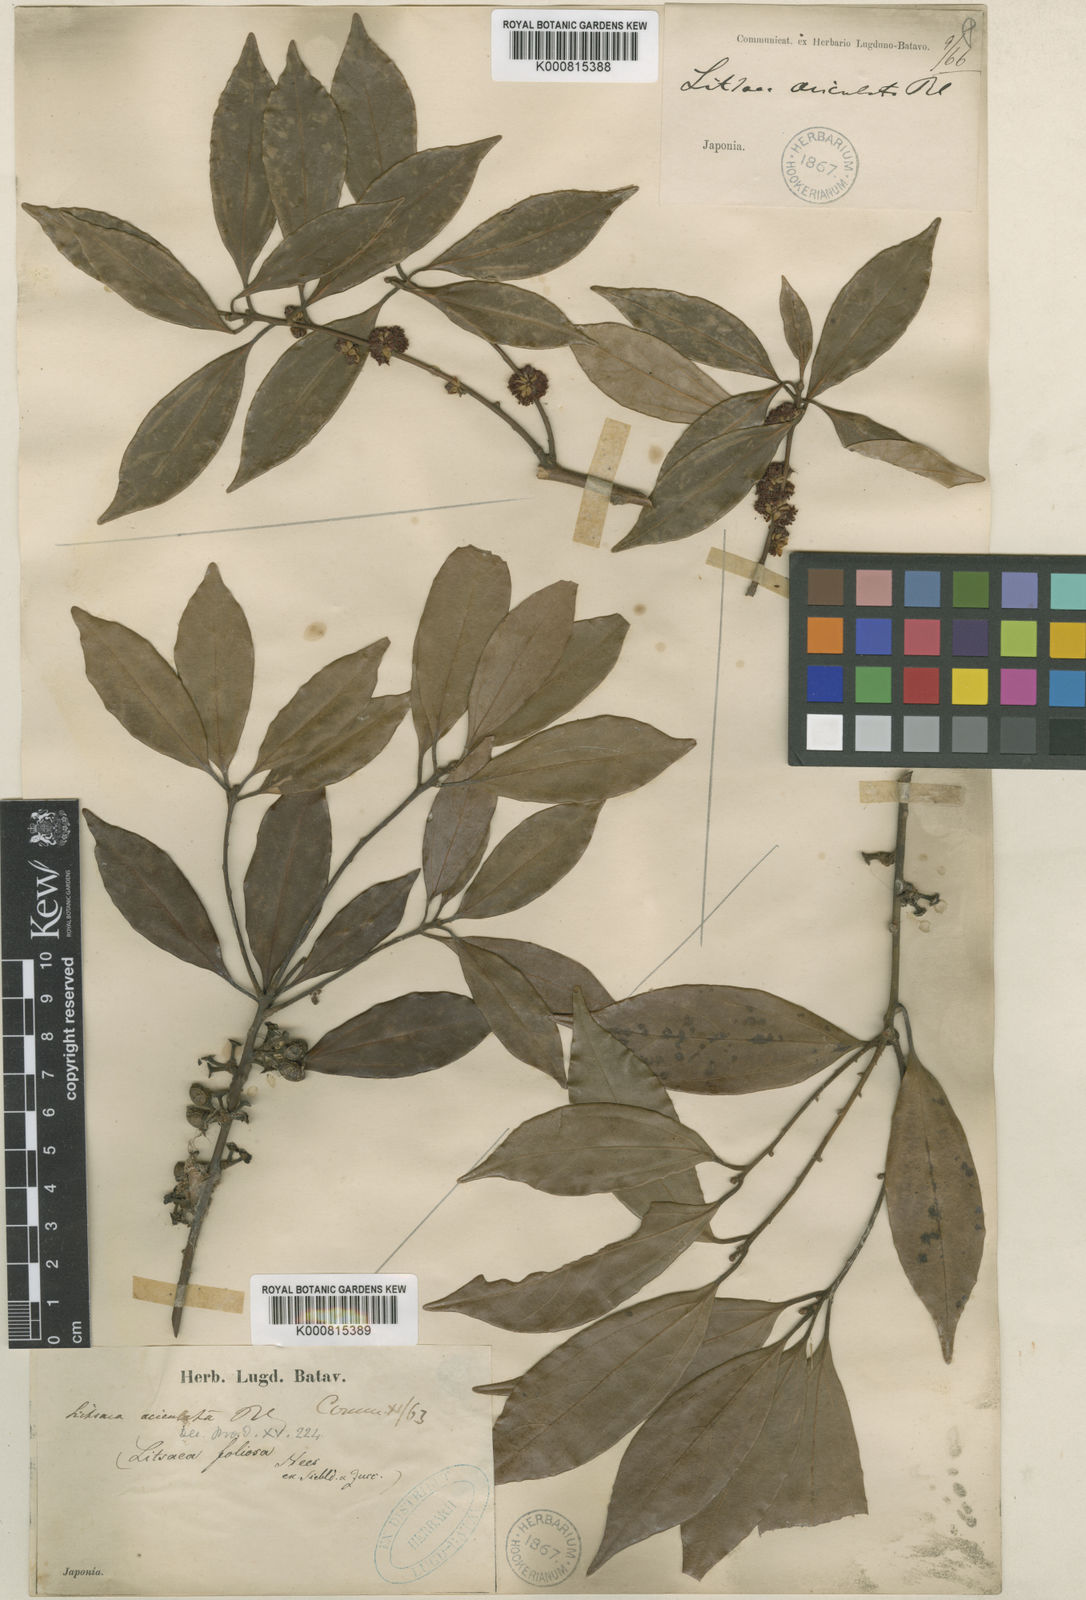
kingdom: Plantae
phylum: Tracheophyta
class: Magnoliopsida
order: Laurales
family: Lauraceae
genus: Neolitsea
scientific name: Neolitsea aciculata
